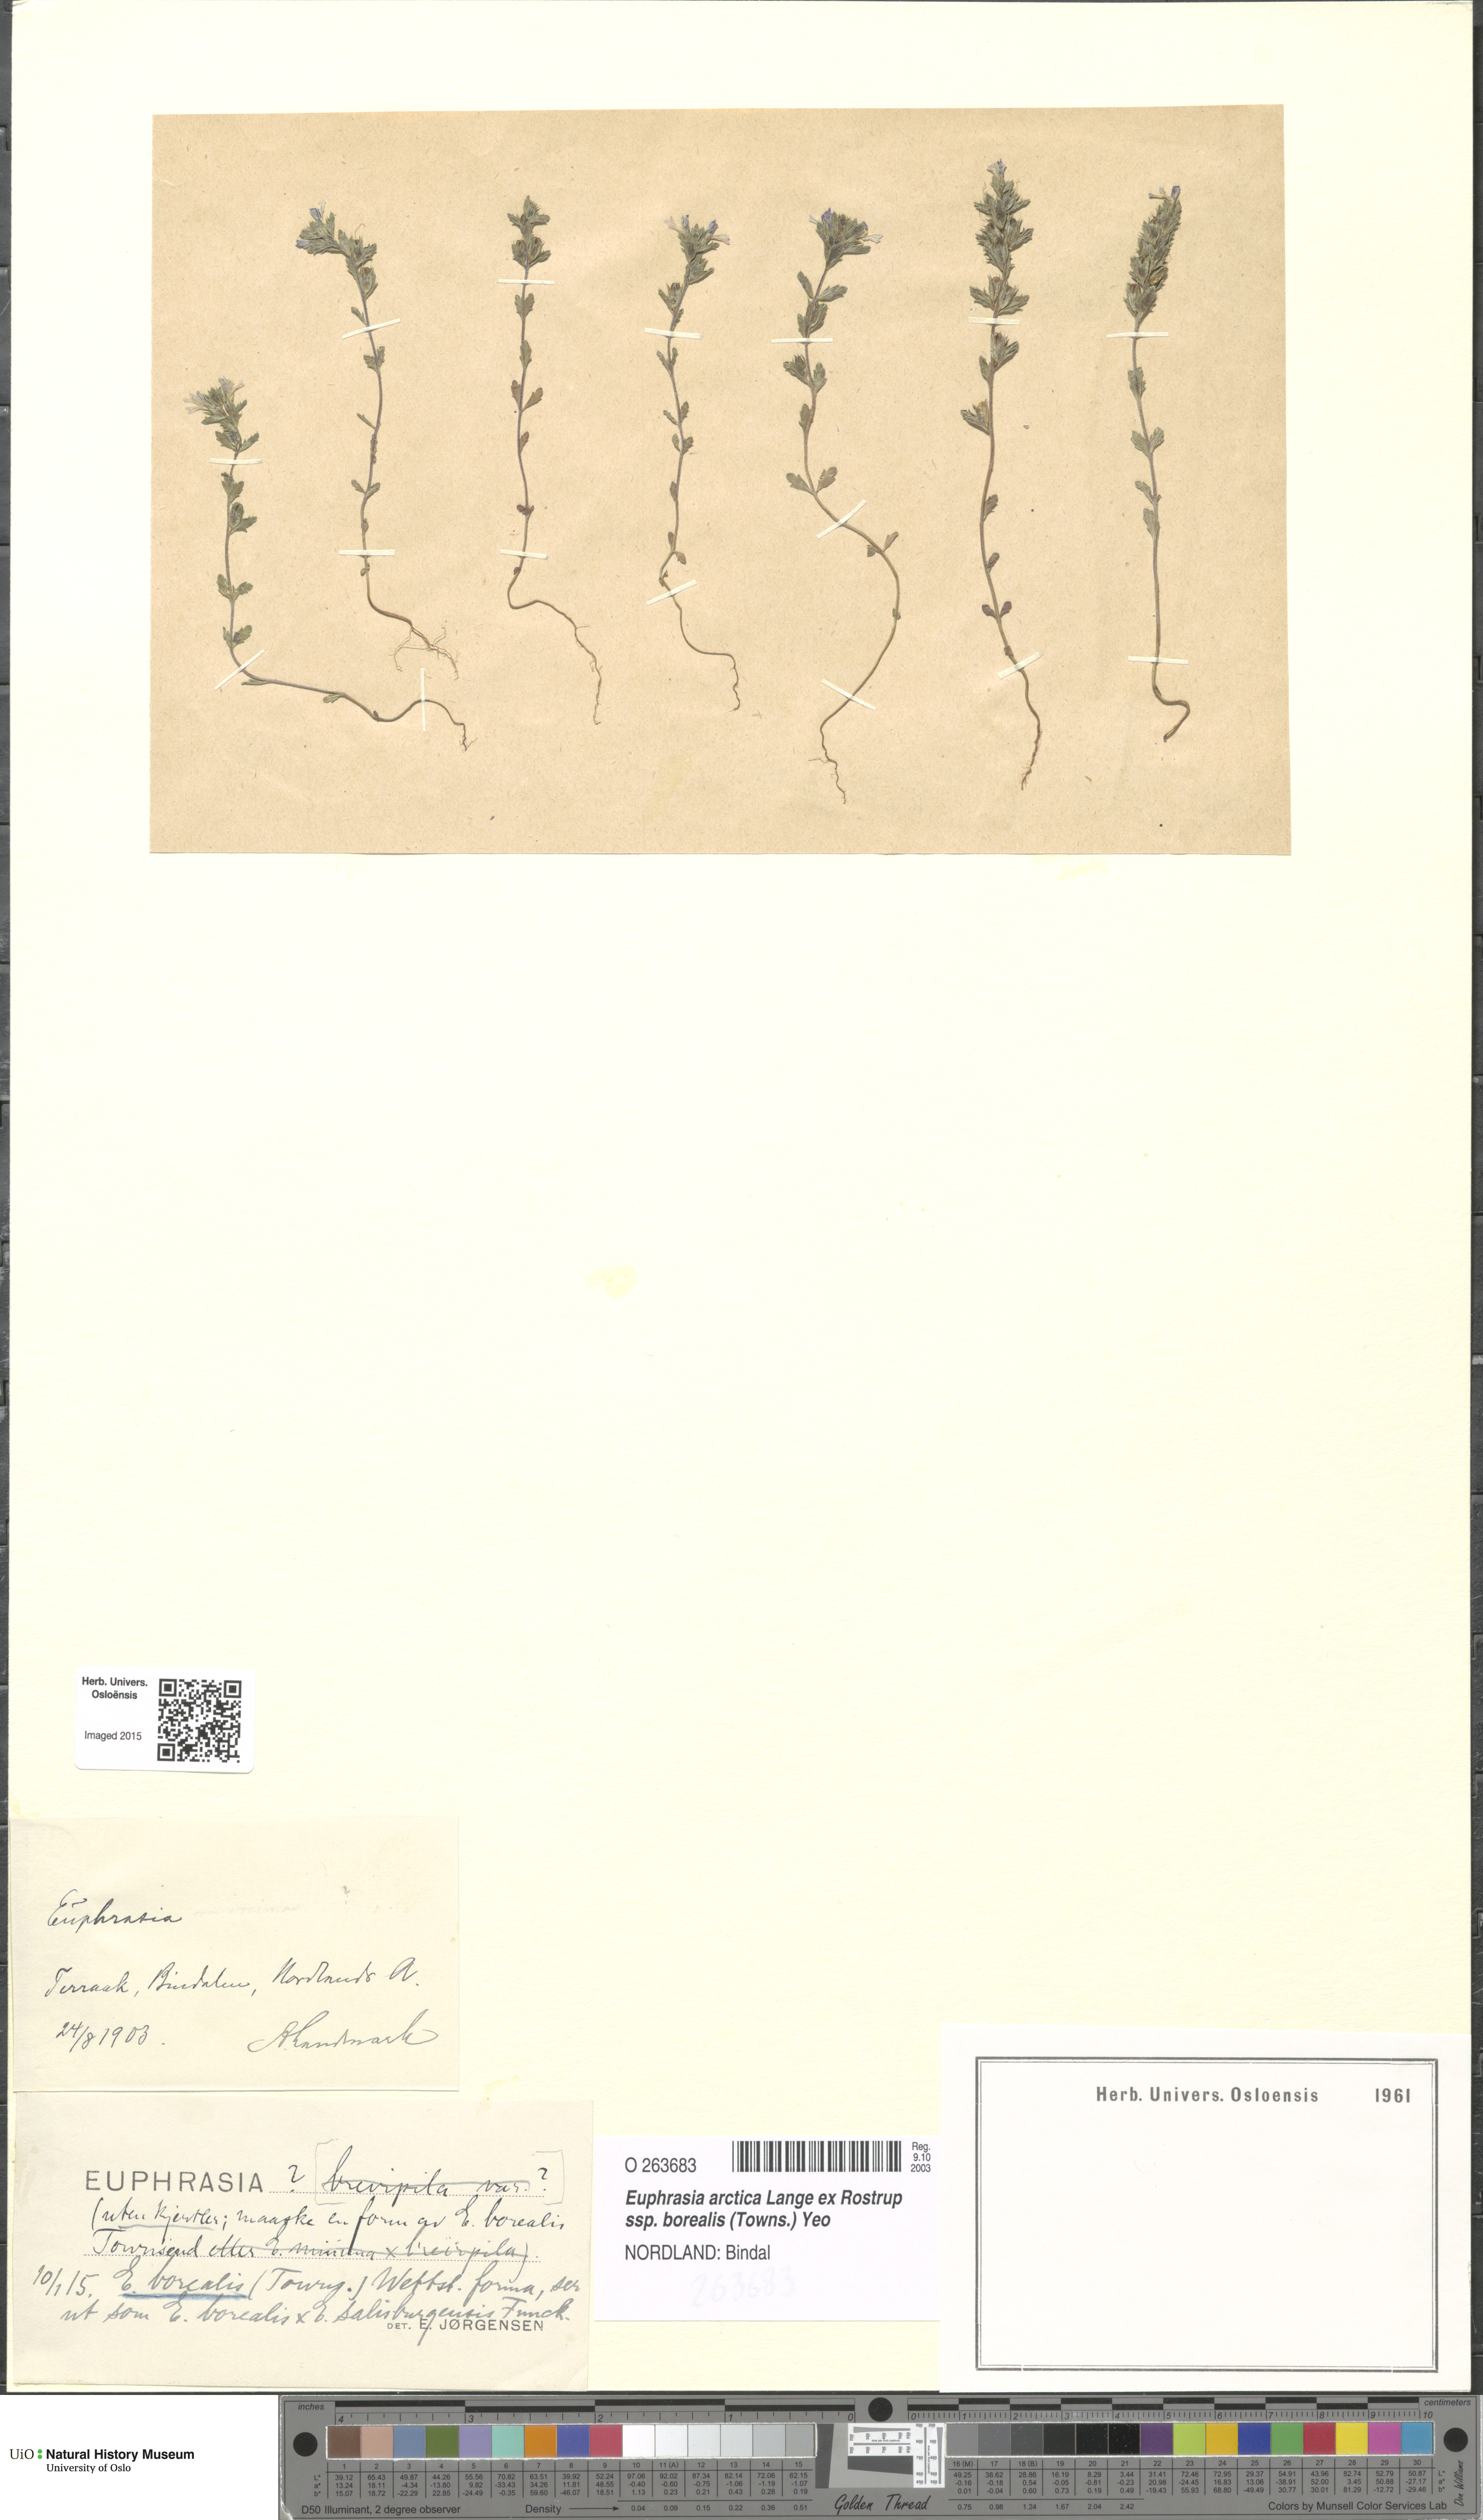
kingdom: Plantae
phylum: Tracheophyta
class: Magnoliopsida
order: Lamiales
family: Orobanchaceae
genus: Euphrasia
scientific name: Euphrasia arctica
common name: An eyebright
